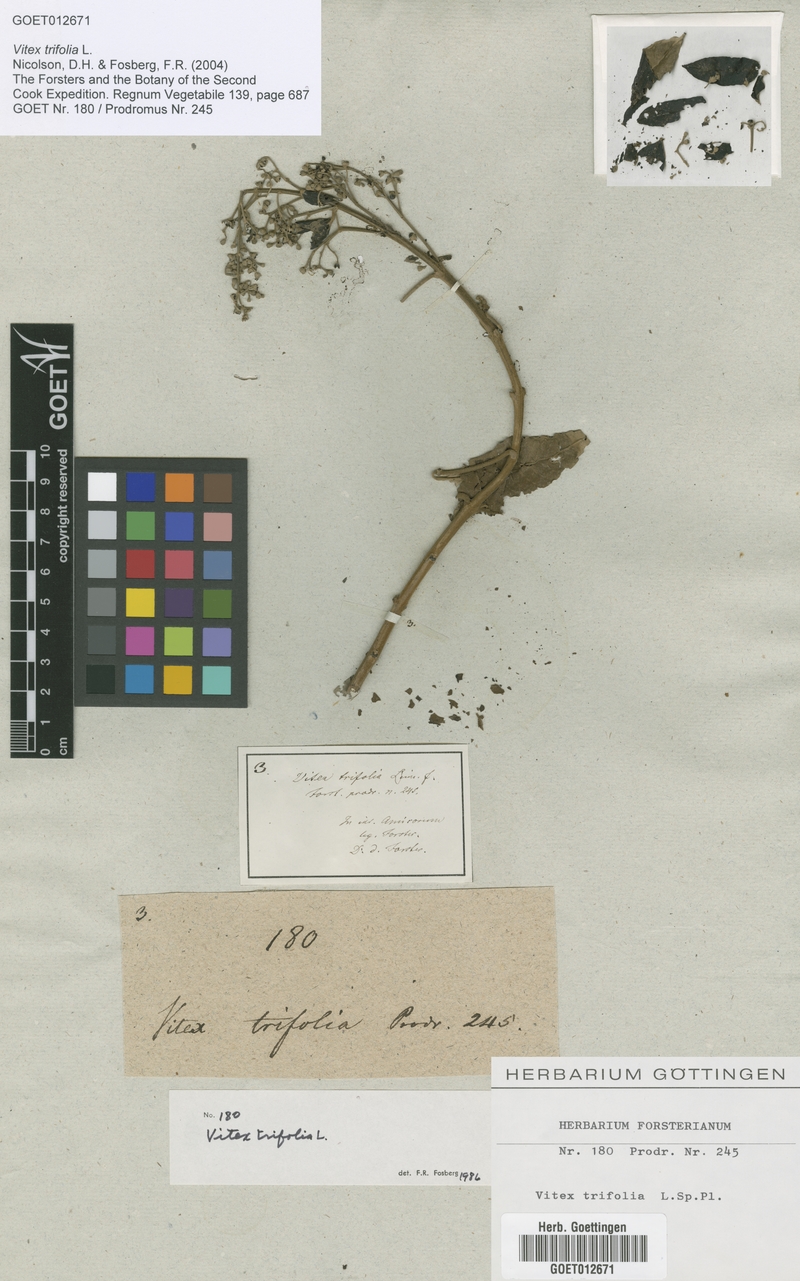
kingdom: Plantae
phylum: Tracheophyta
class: Magnoliopsida
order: Lamiales
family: Lamiaceae
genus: Vitex
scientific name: Vitex trifolia
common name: Simpleleaf chastetree
